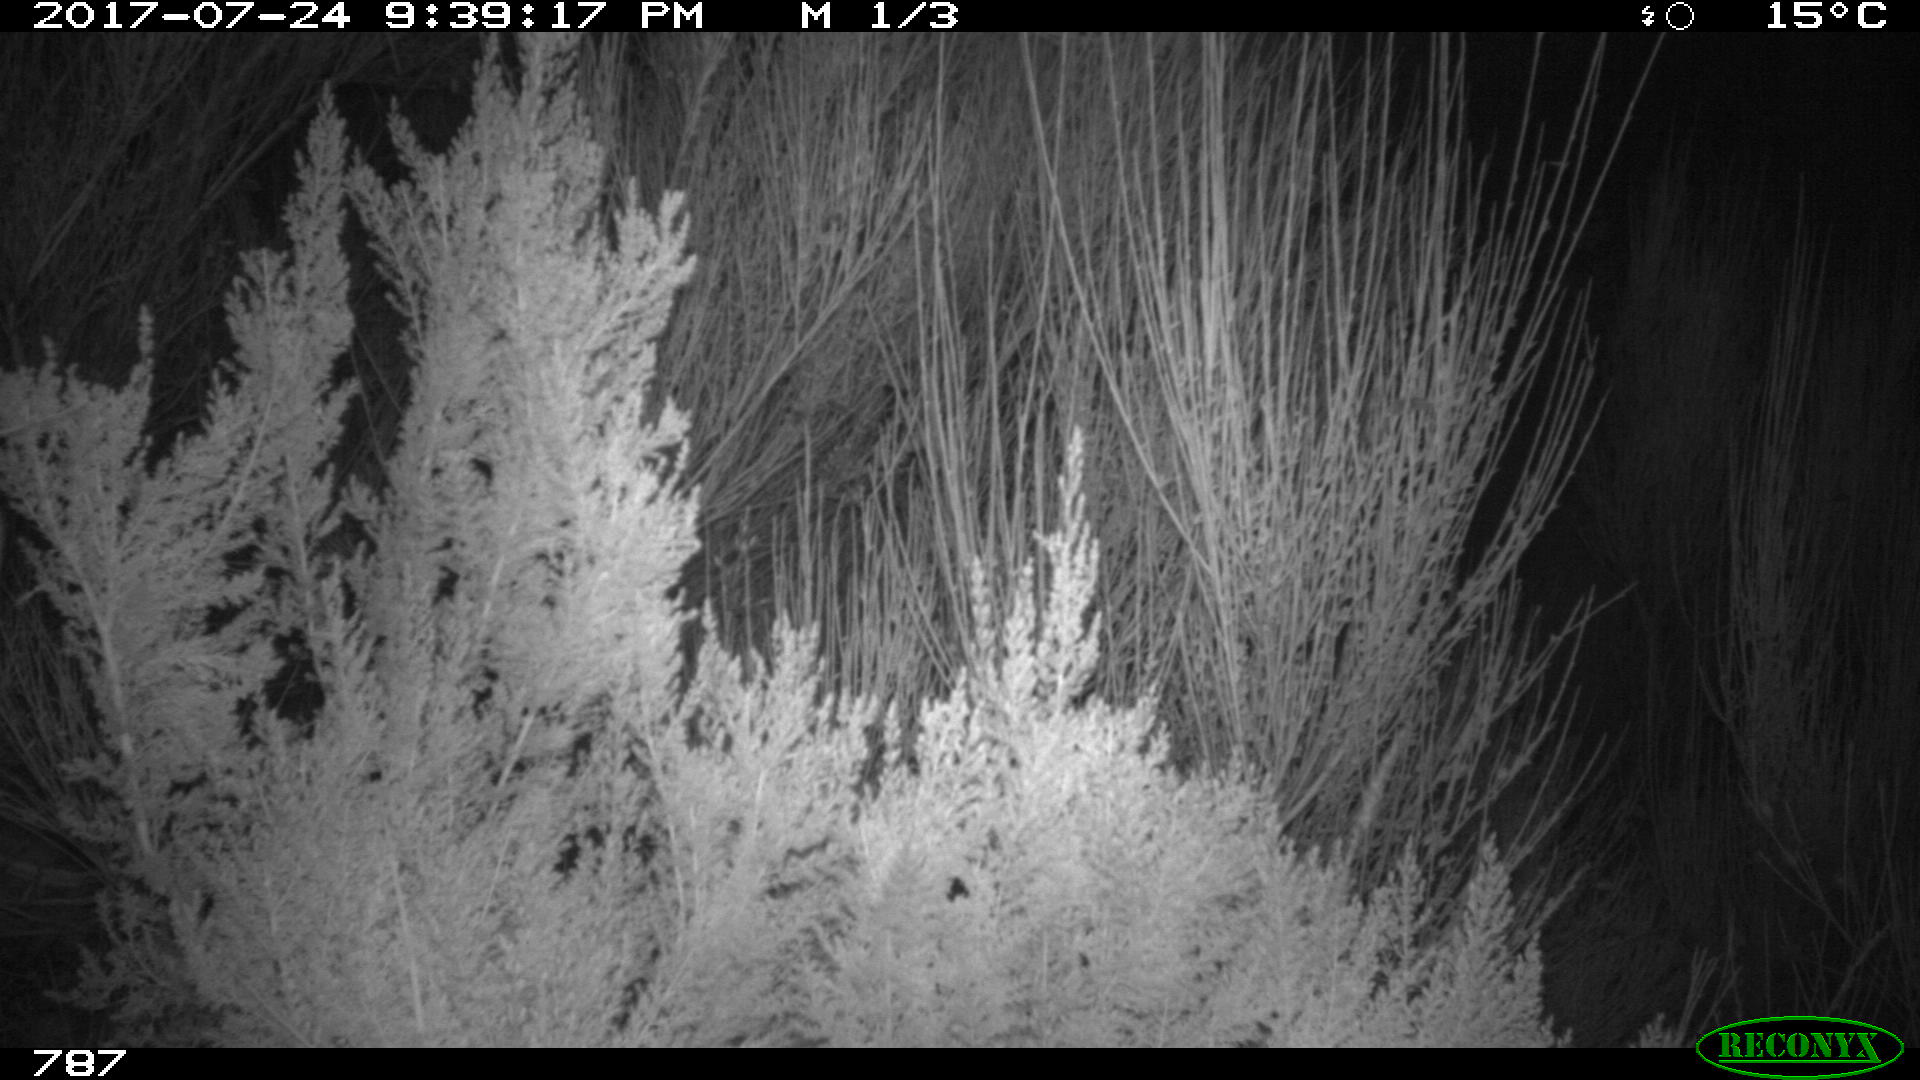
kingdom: Animalia
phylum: Chordata
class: Mammalia
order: Artiodactyla
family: Cervidae
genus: Capreolus
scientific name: Capreolus capreolus
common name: Western roe deer
